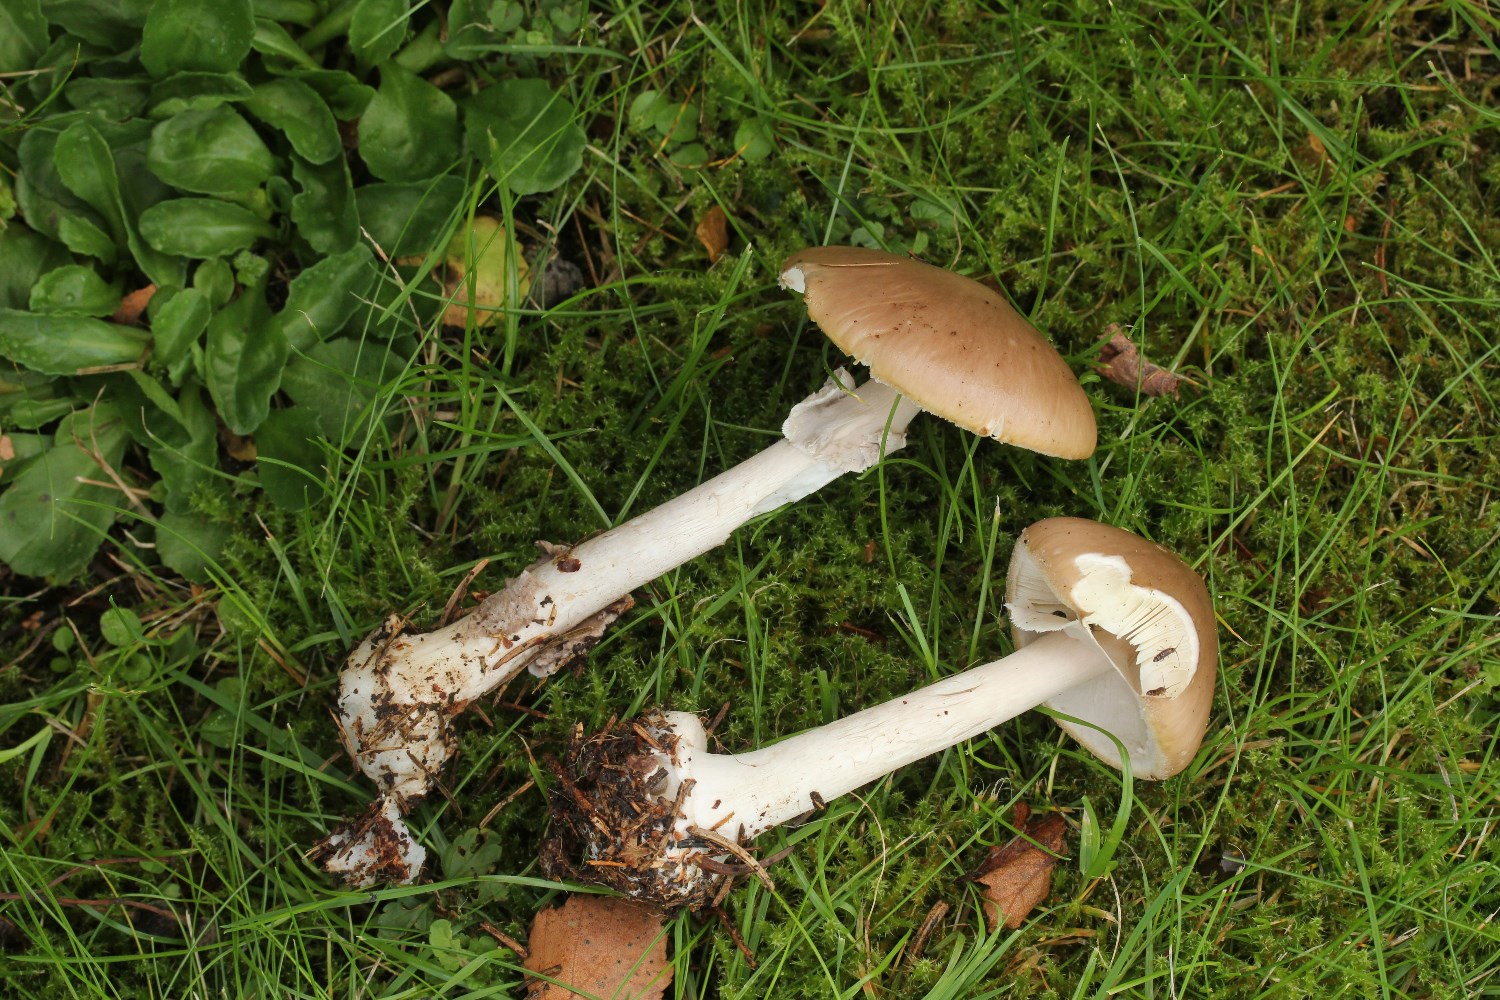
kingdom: Fungi
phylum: Basidiomycota
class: Agaricomycetes
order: Agaricales
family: Amanitaceae
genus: Amanita
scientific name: Amanita porphyria
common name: porfyr-fluesvamp
